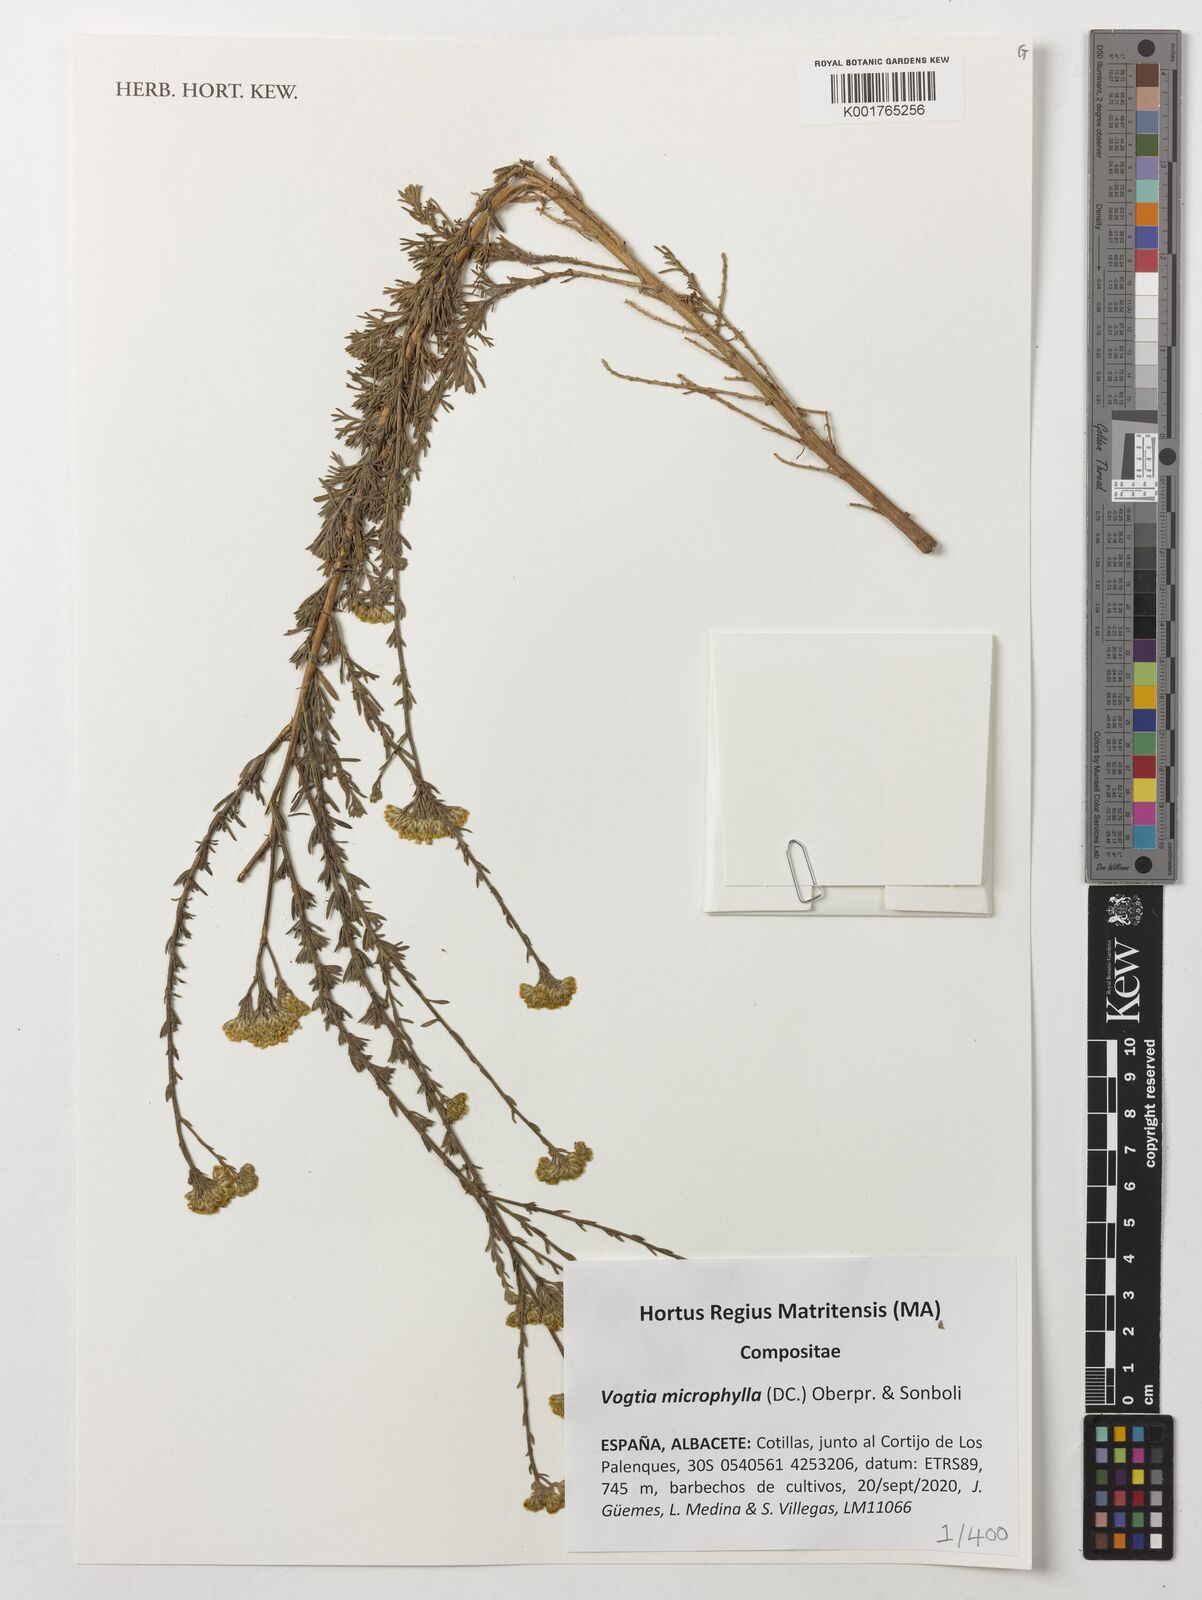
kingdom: Plantae
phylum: Tracheophyta
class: Magnoliopsida
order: Asterales
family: Asteraceae
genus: Vogtia
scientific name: Vogtia microphylla
